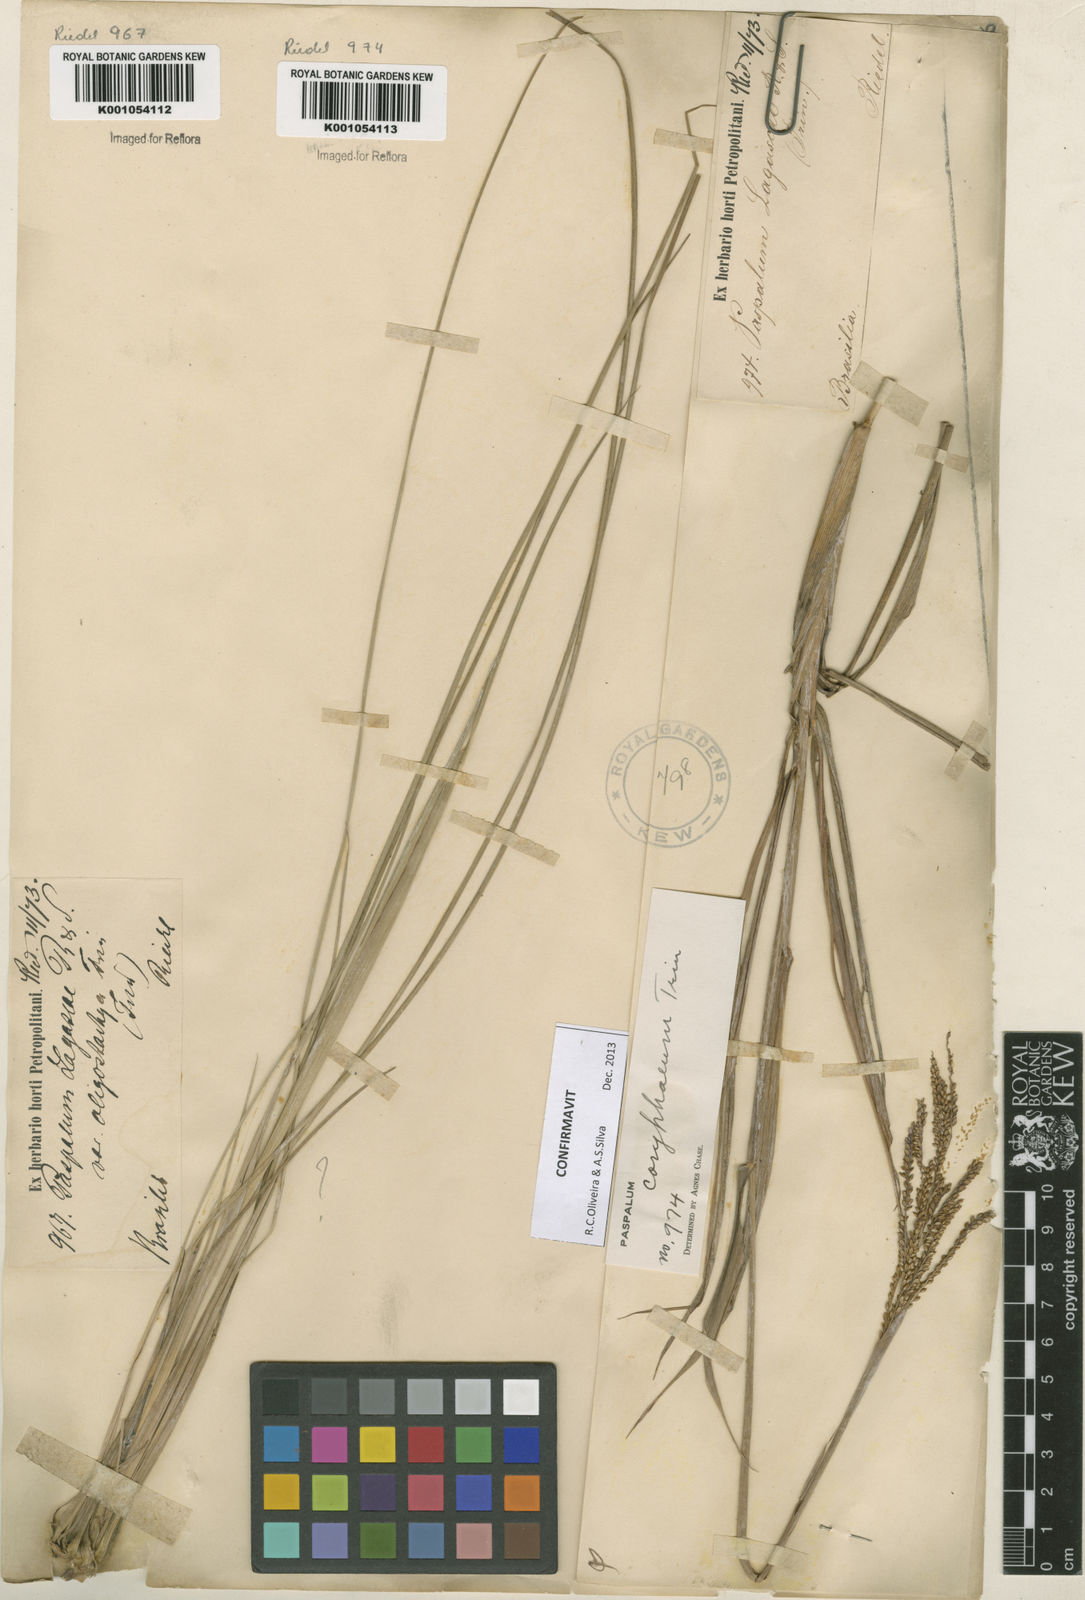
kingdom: Plantae
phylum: Tracheophyta
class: Liliopsida
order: Poales
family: Poaceae
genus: Paspalum
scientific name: Paspalum coryphaeum
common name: Emperor crowngrass
